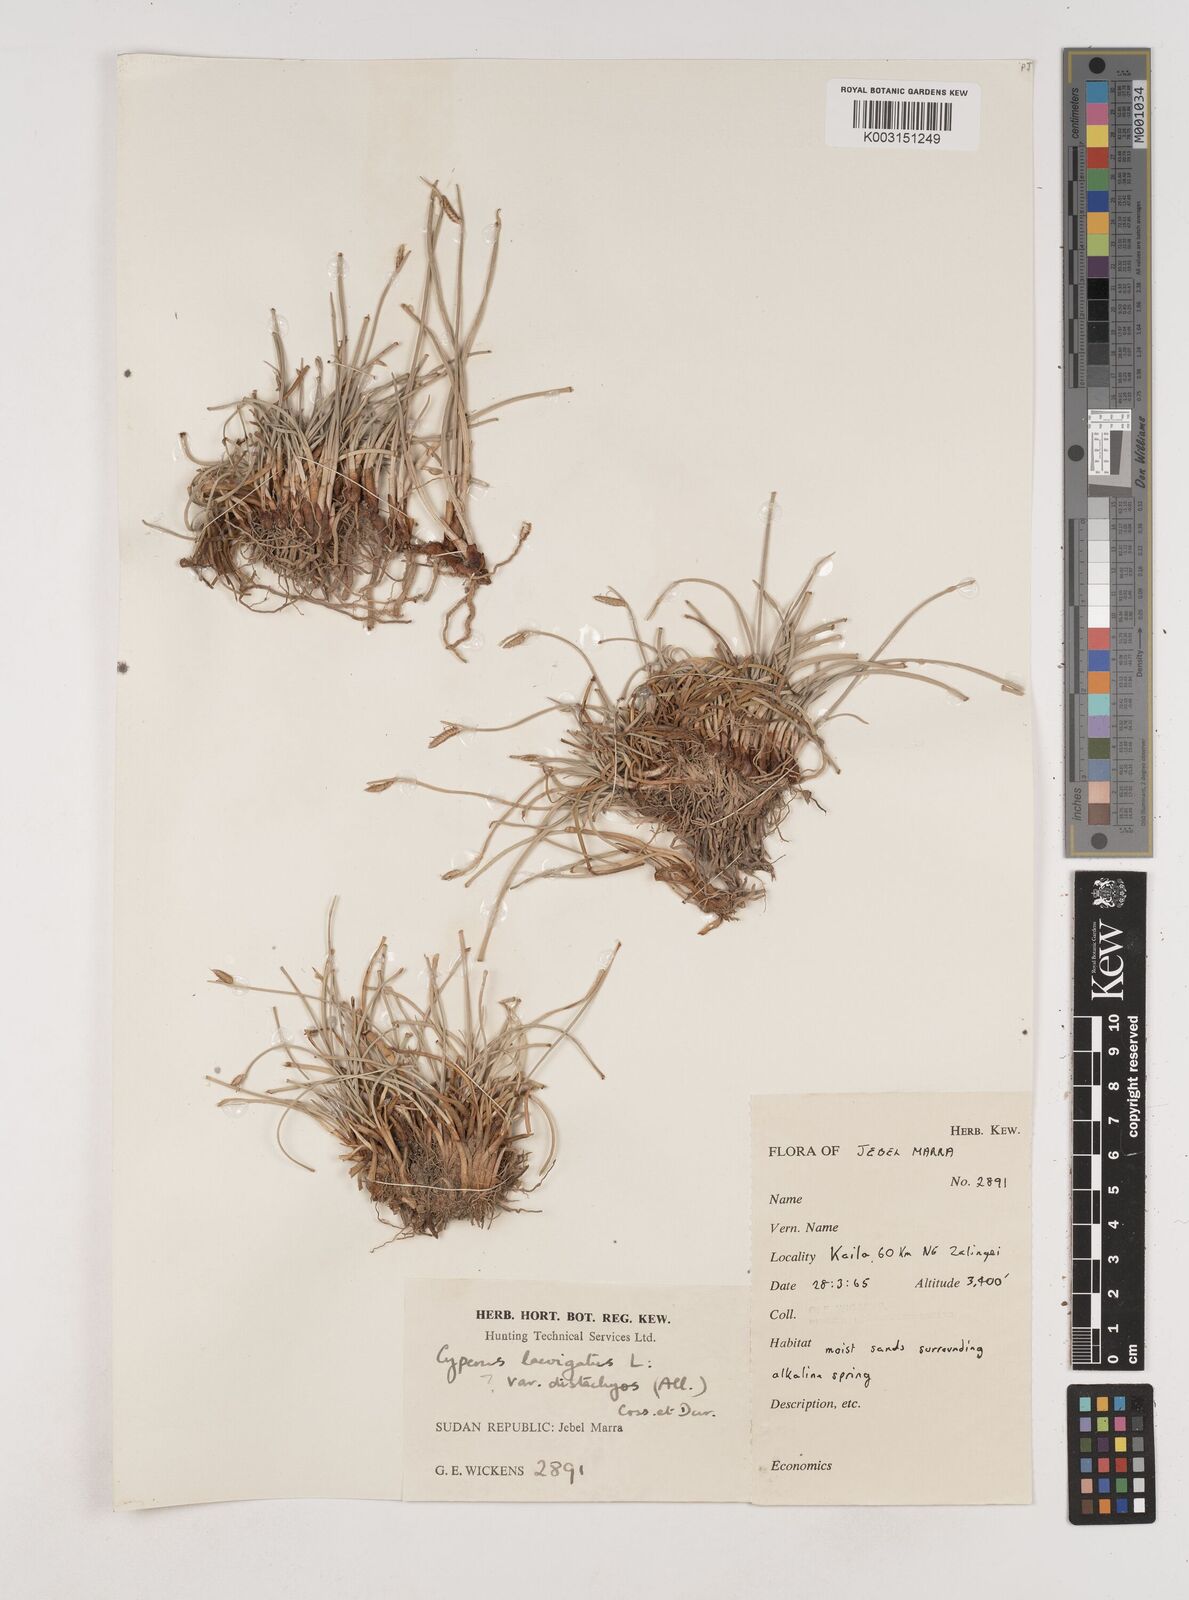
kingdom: Plantae
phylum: Tracheophyta
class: Liliopsida
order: Poales
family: Cyperaceae
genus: Cyperus
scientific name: Cyperus laevigatus
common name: Smooth flat sedge
